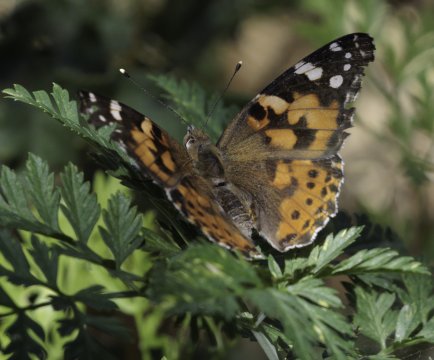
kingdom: Animalia
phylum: Arthropoda
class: Insecta
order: Lepidoptera
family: Nymphalidae
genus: Vanessa
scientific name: Vanessa cardui
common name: Painted Lady
